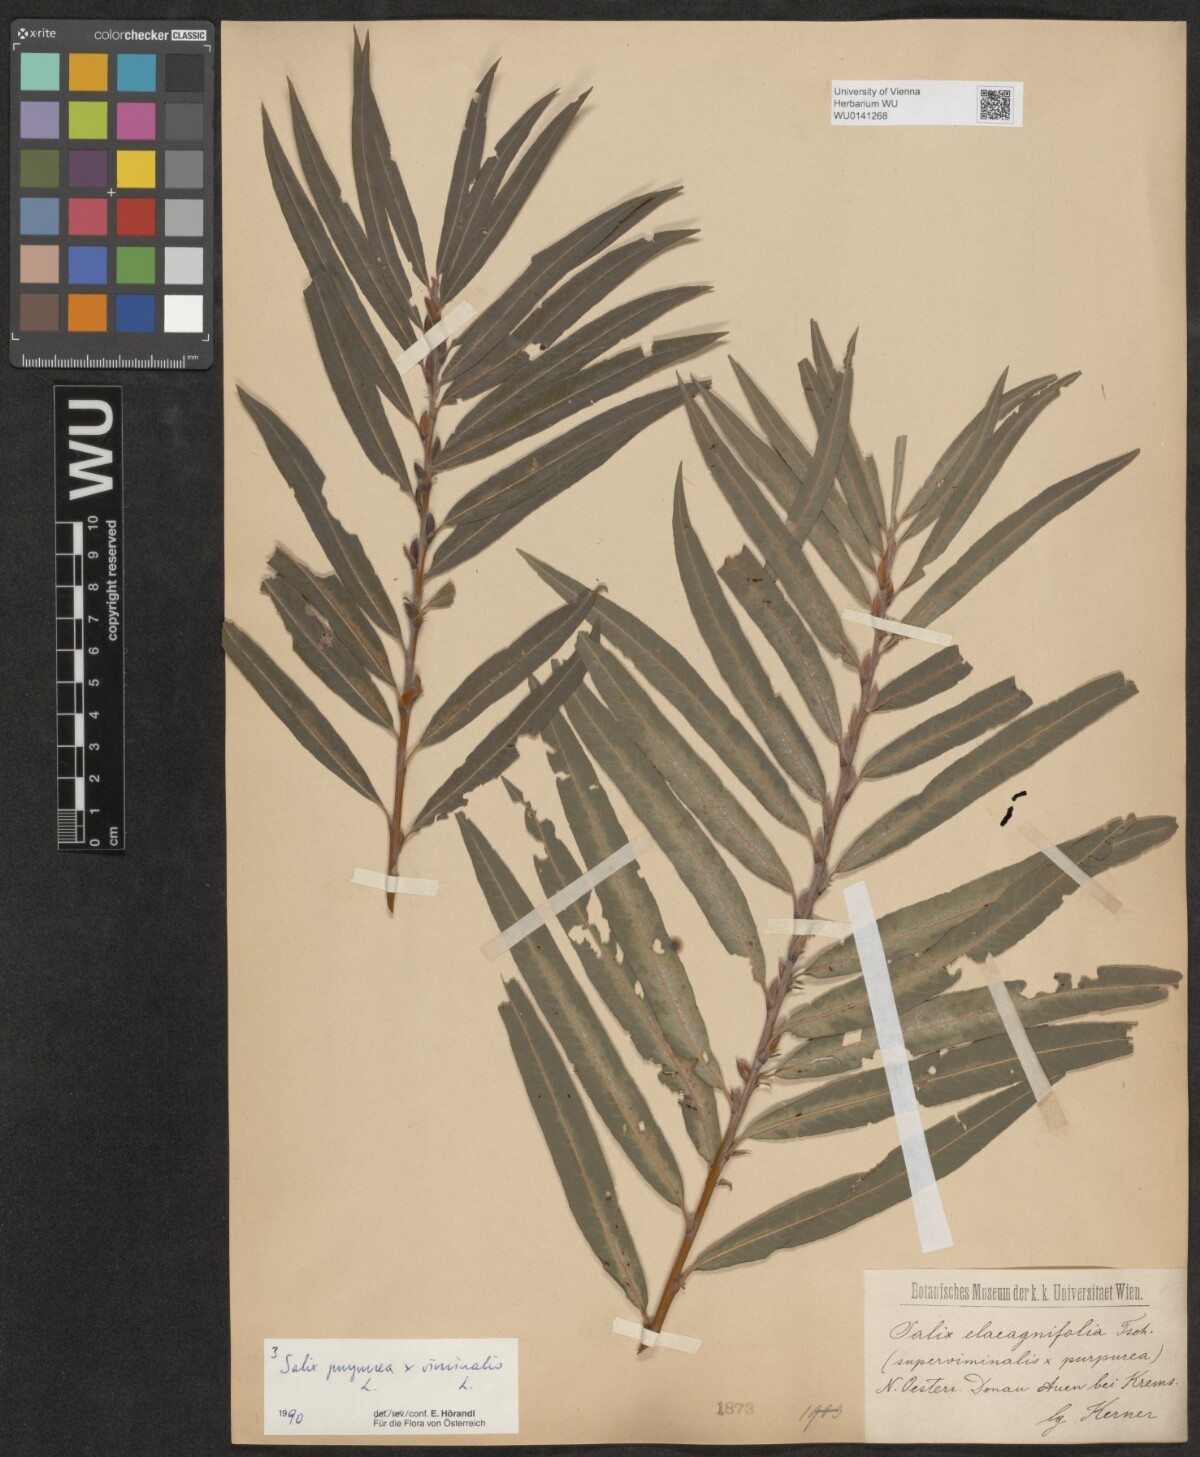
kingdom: Plantae
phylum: Tracheophyta
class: Magnoliopsida
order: Malpighiales
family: Salicaceae
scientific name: Salicaceae
